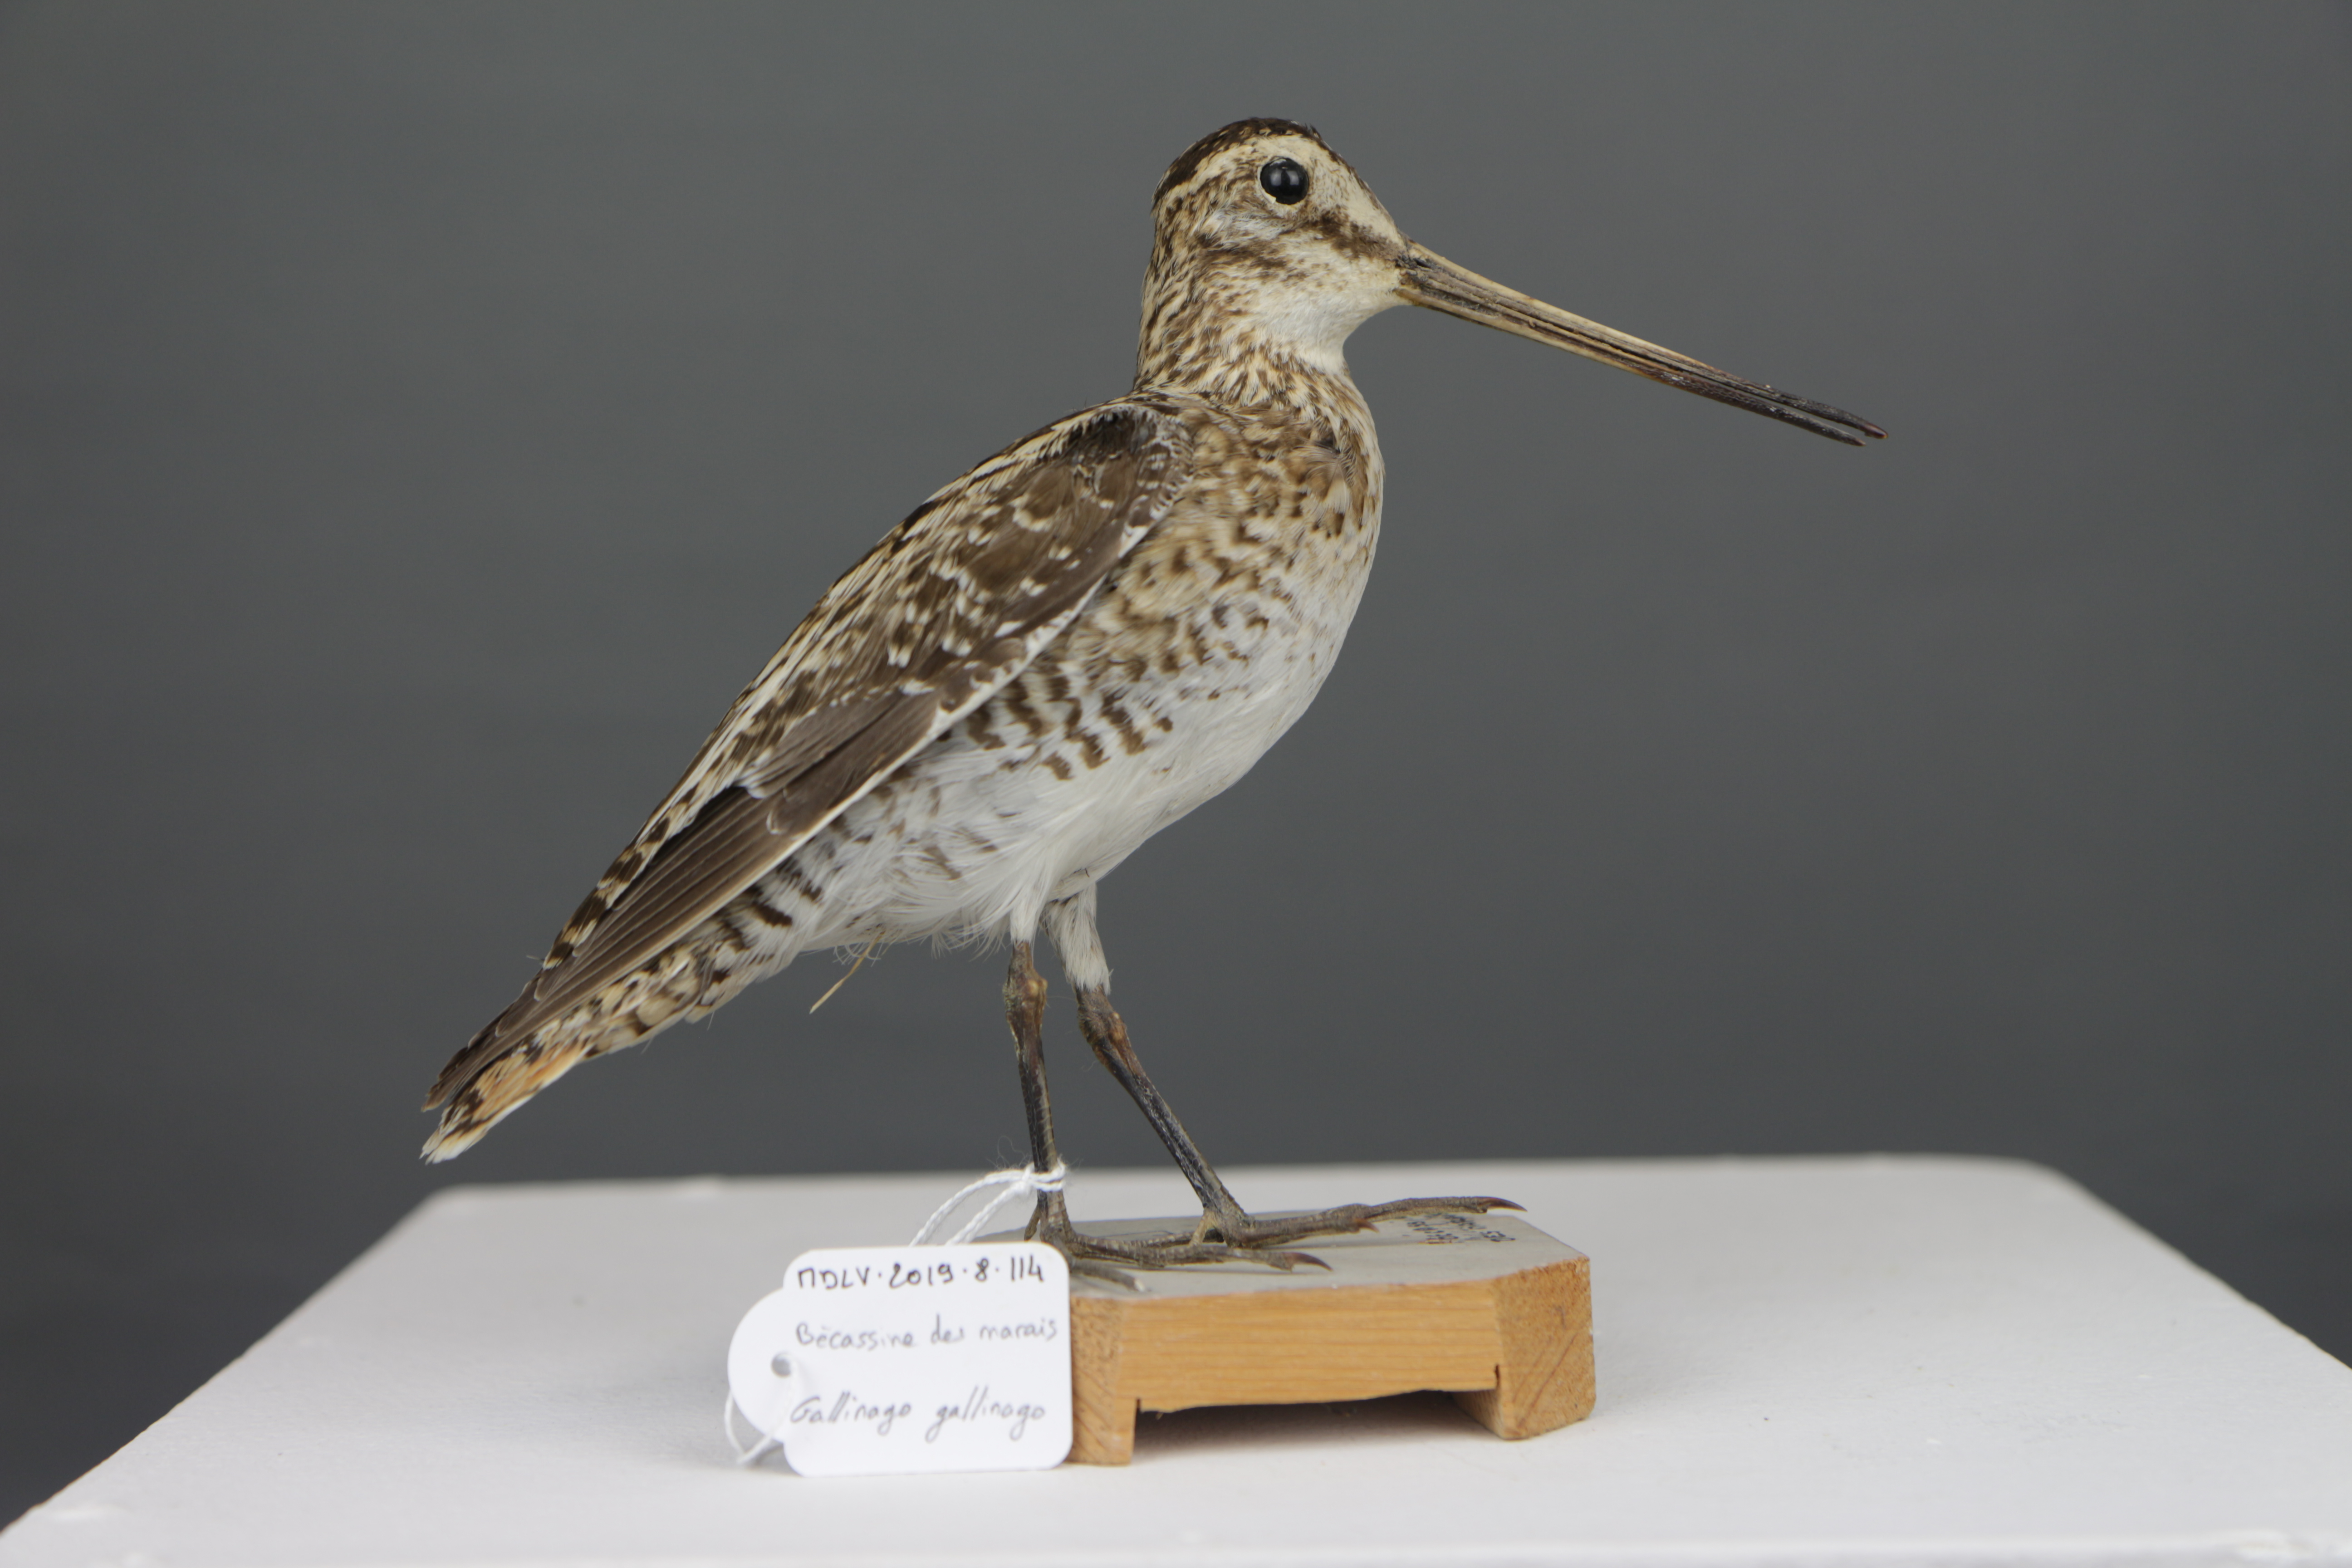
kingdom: Animalia
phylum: Chordata
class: Aves
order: Charadriiformes
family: Scolopacidae
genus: Gallinago
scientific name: Gallinago gallinago
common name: Common snipe
